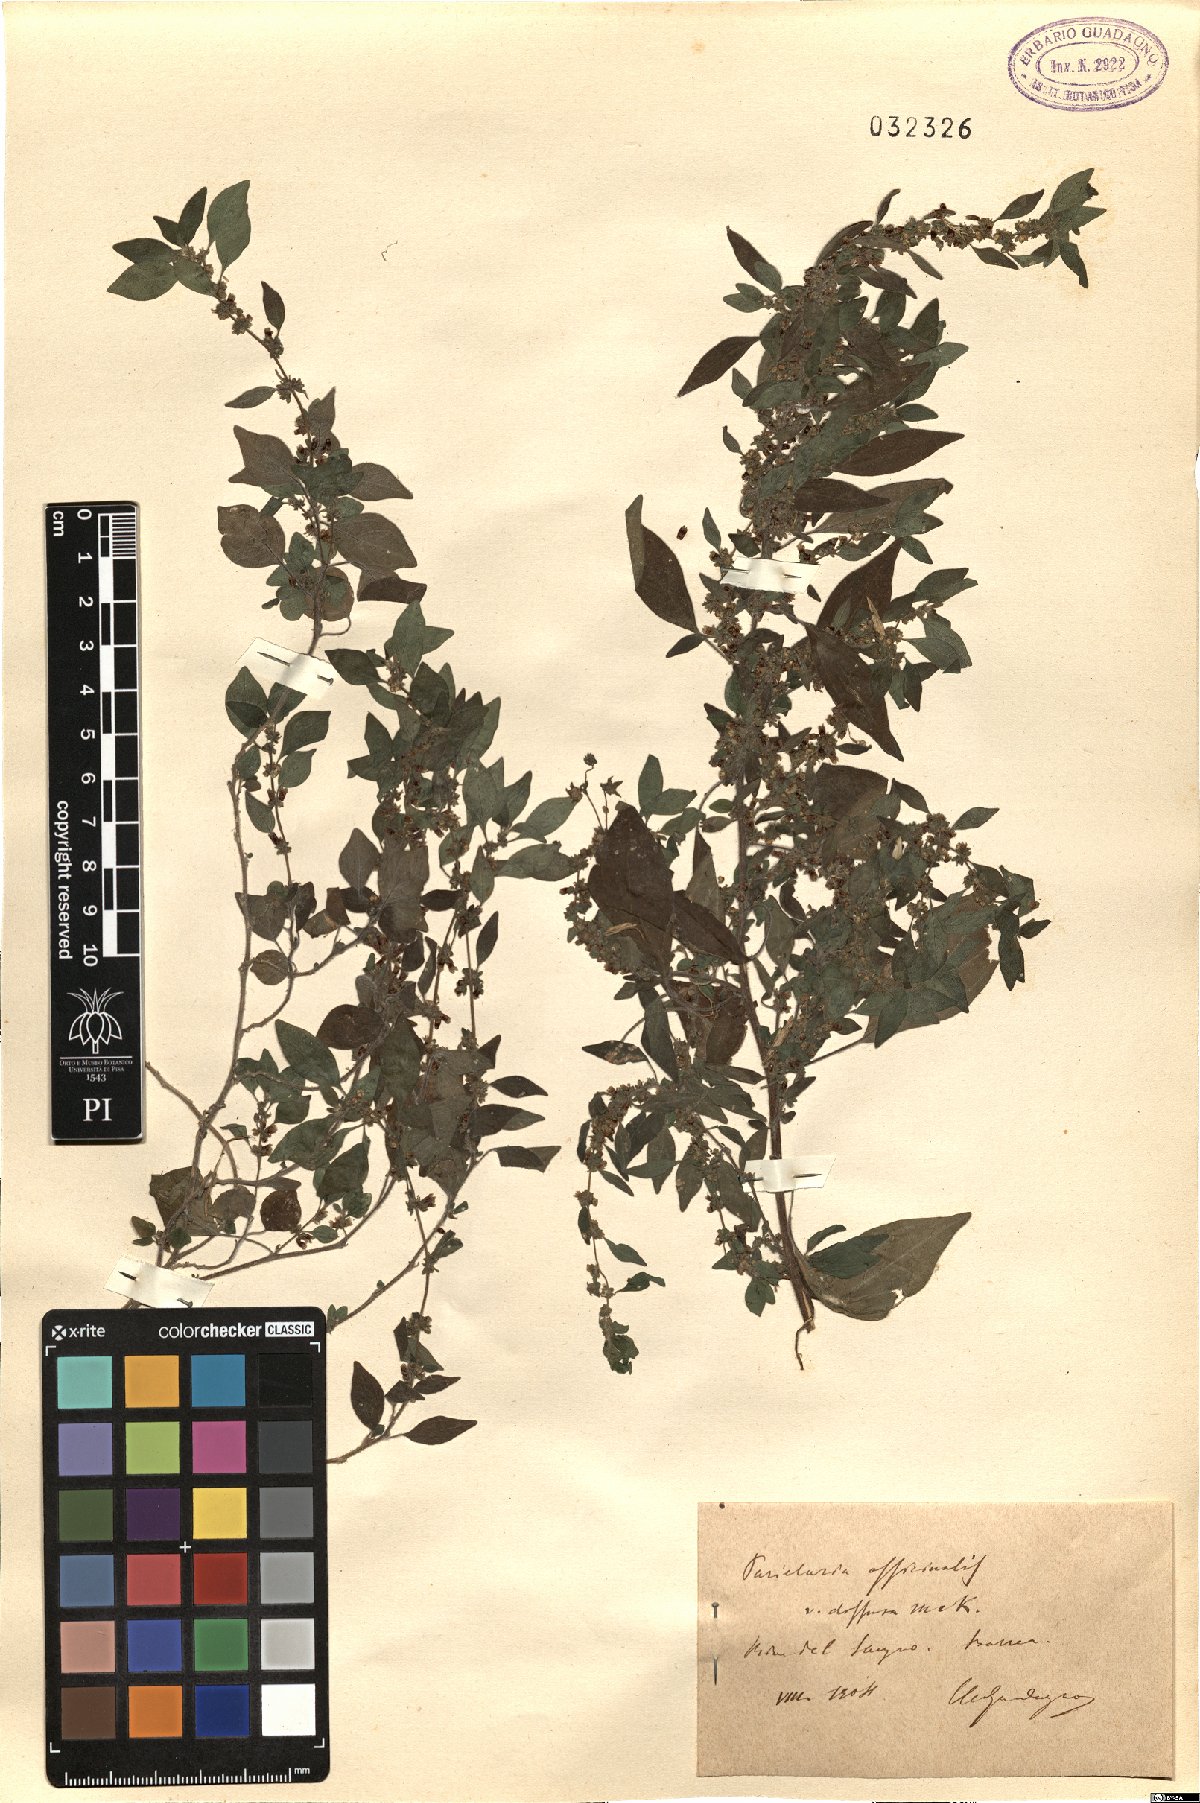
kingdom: Plantae
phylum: Tracheophyta
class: Magnoliopsida
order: Rosales
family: Urticaceae
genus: Parietaria
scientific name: Parietaria judaica
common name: Pellitory-of-the-wall
